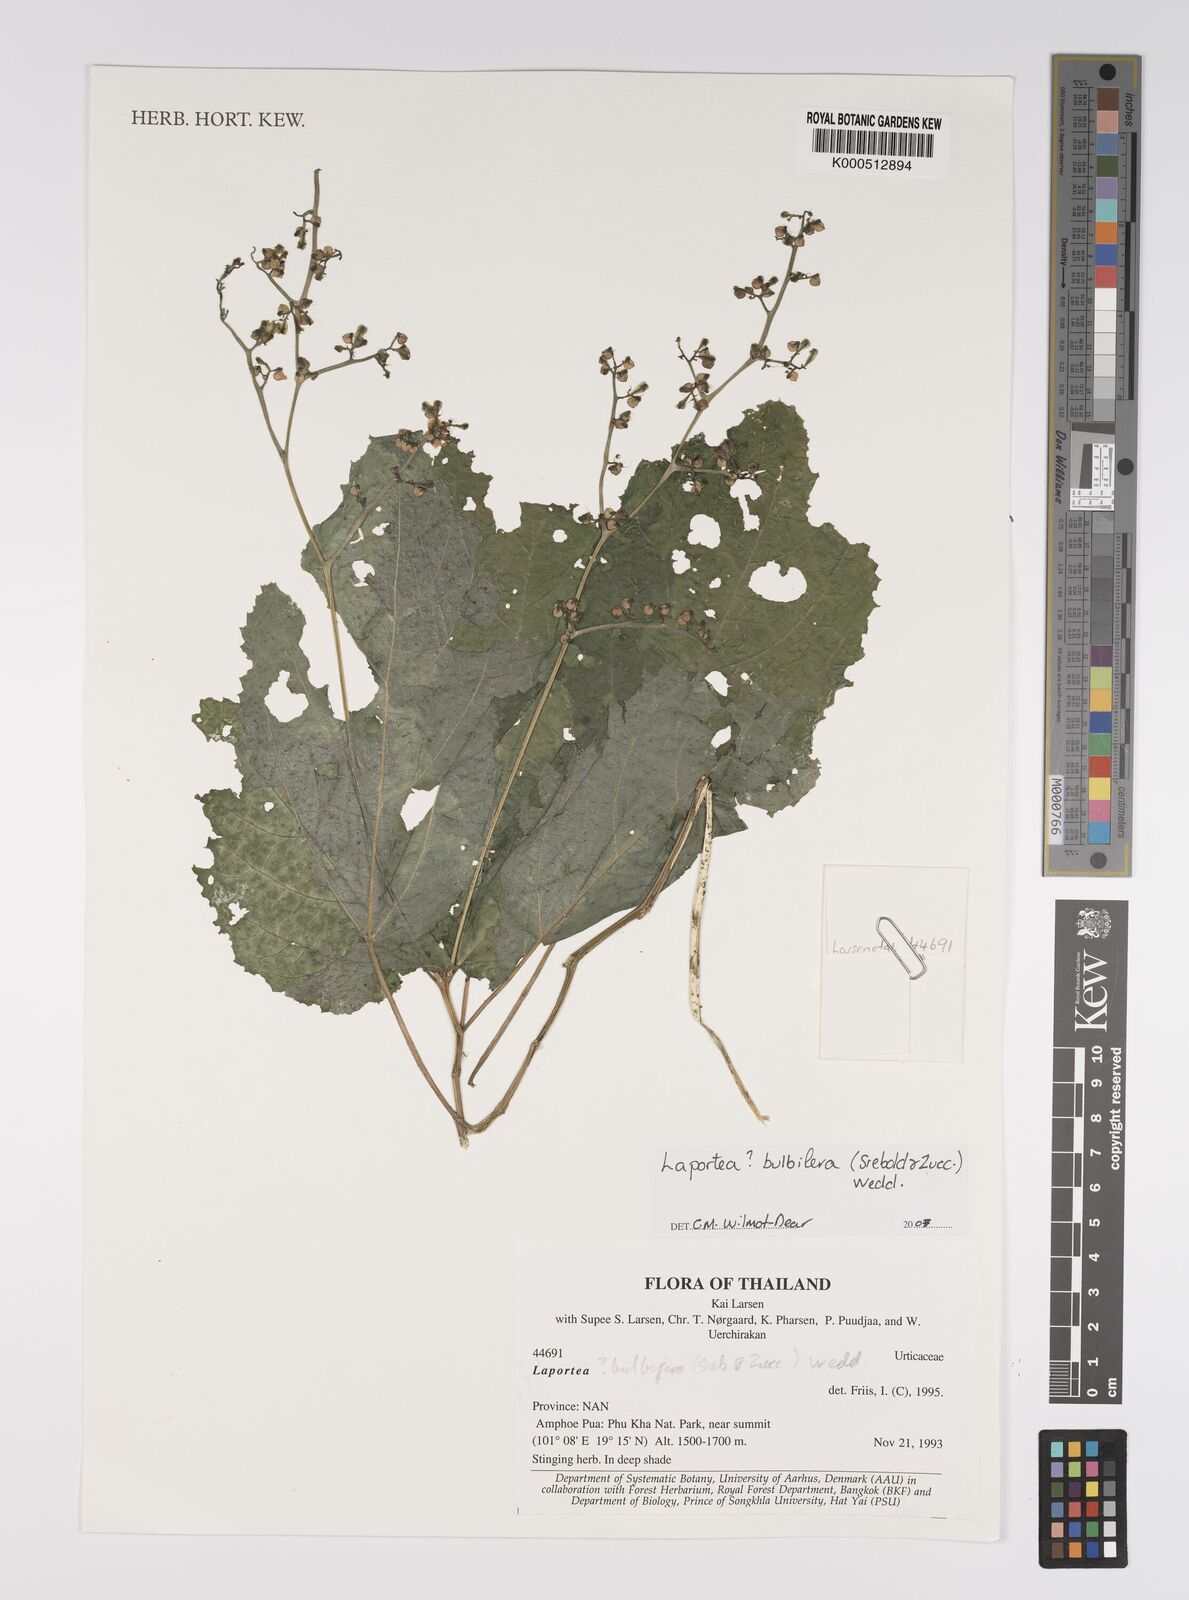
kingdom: Plantae
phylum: Tracheophyta
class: Magnoliopsida
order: Rosales
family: Urticaceae
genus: Laportea
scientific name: Laportea bulbifera
